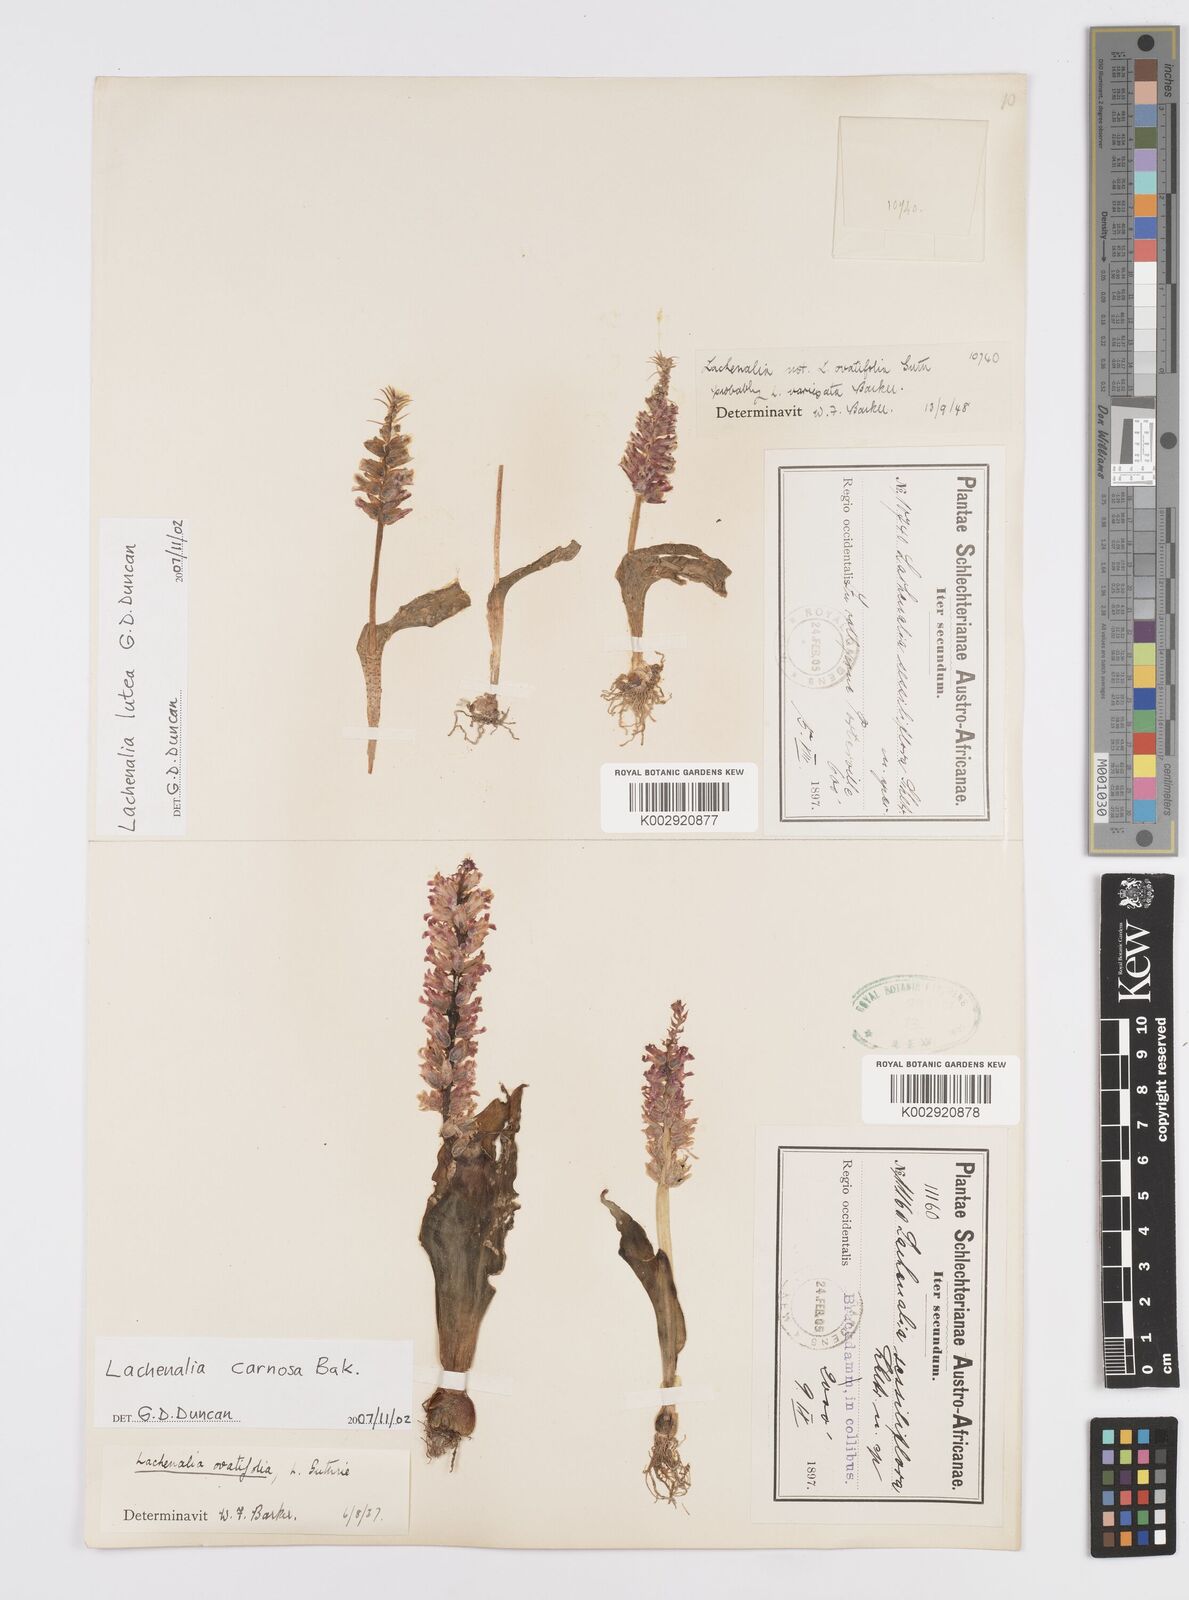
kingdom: Plantae
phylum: Tracheophyta
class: Liliopsida
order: Asparagales
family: Asparagaceae
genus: Lachenalia
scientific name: Lachenalia carnosa
